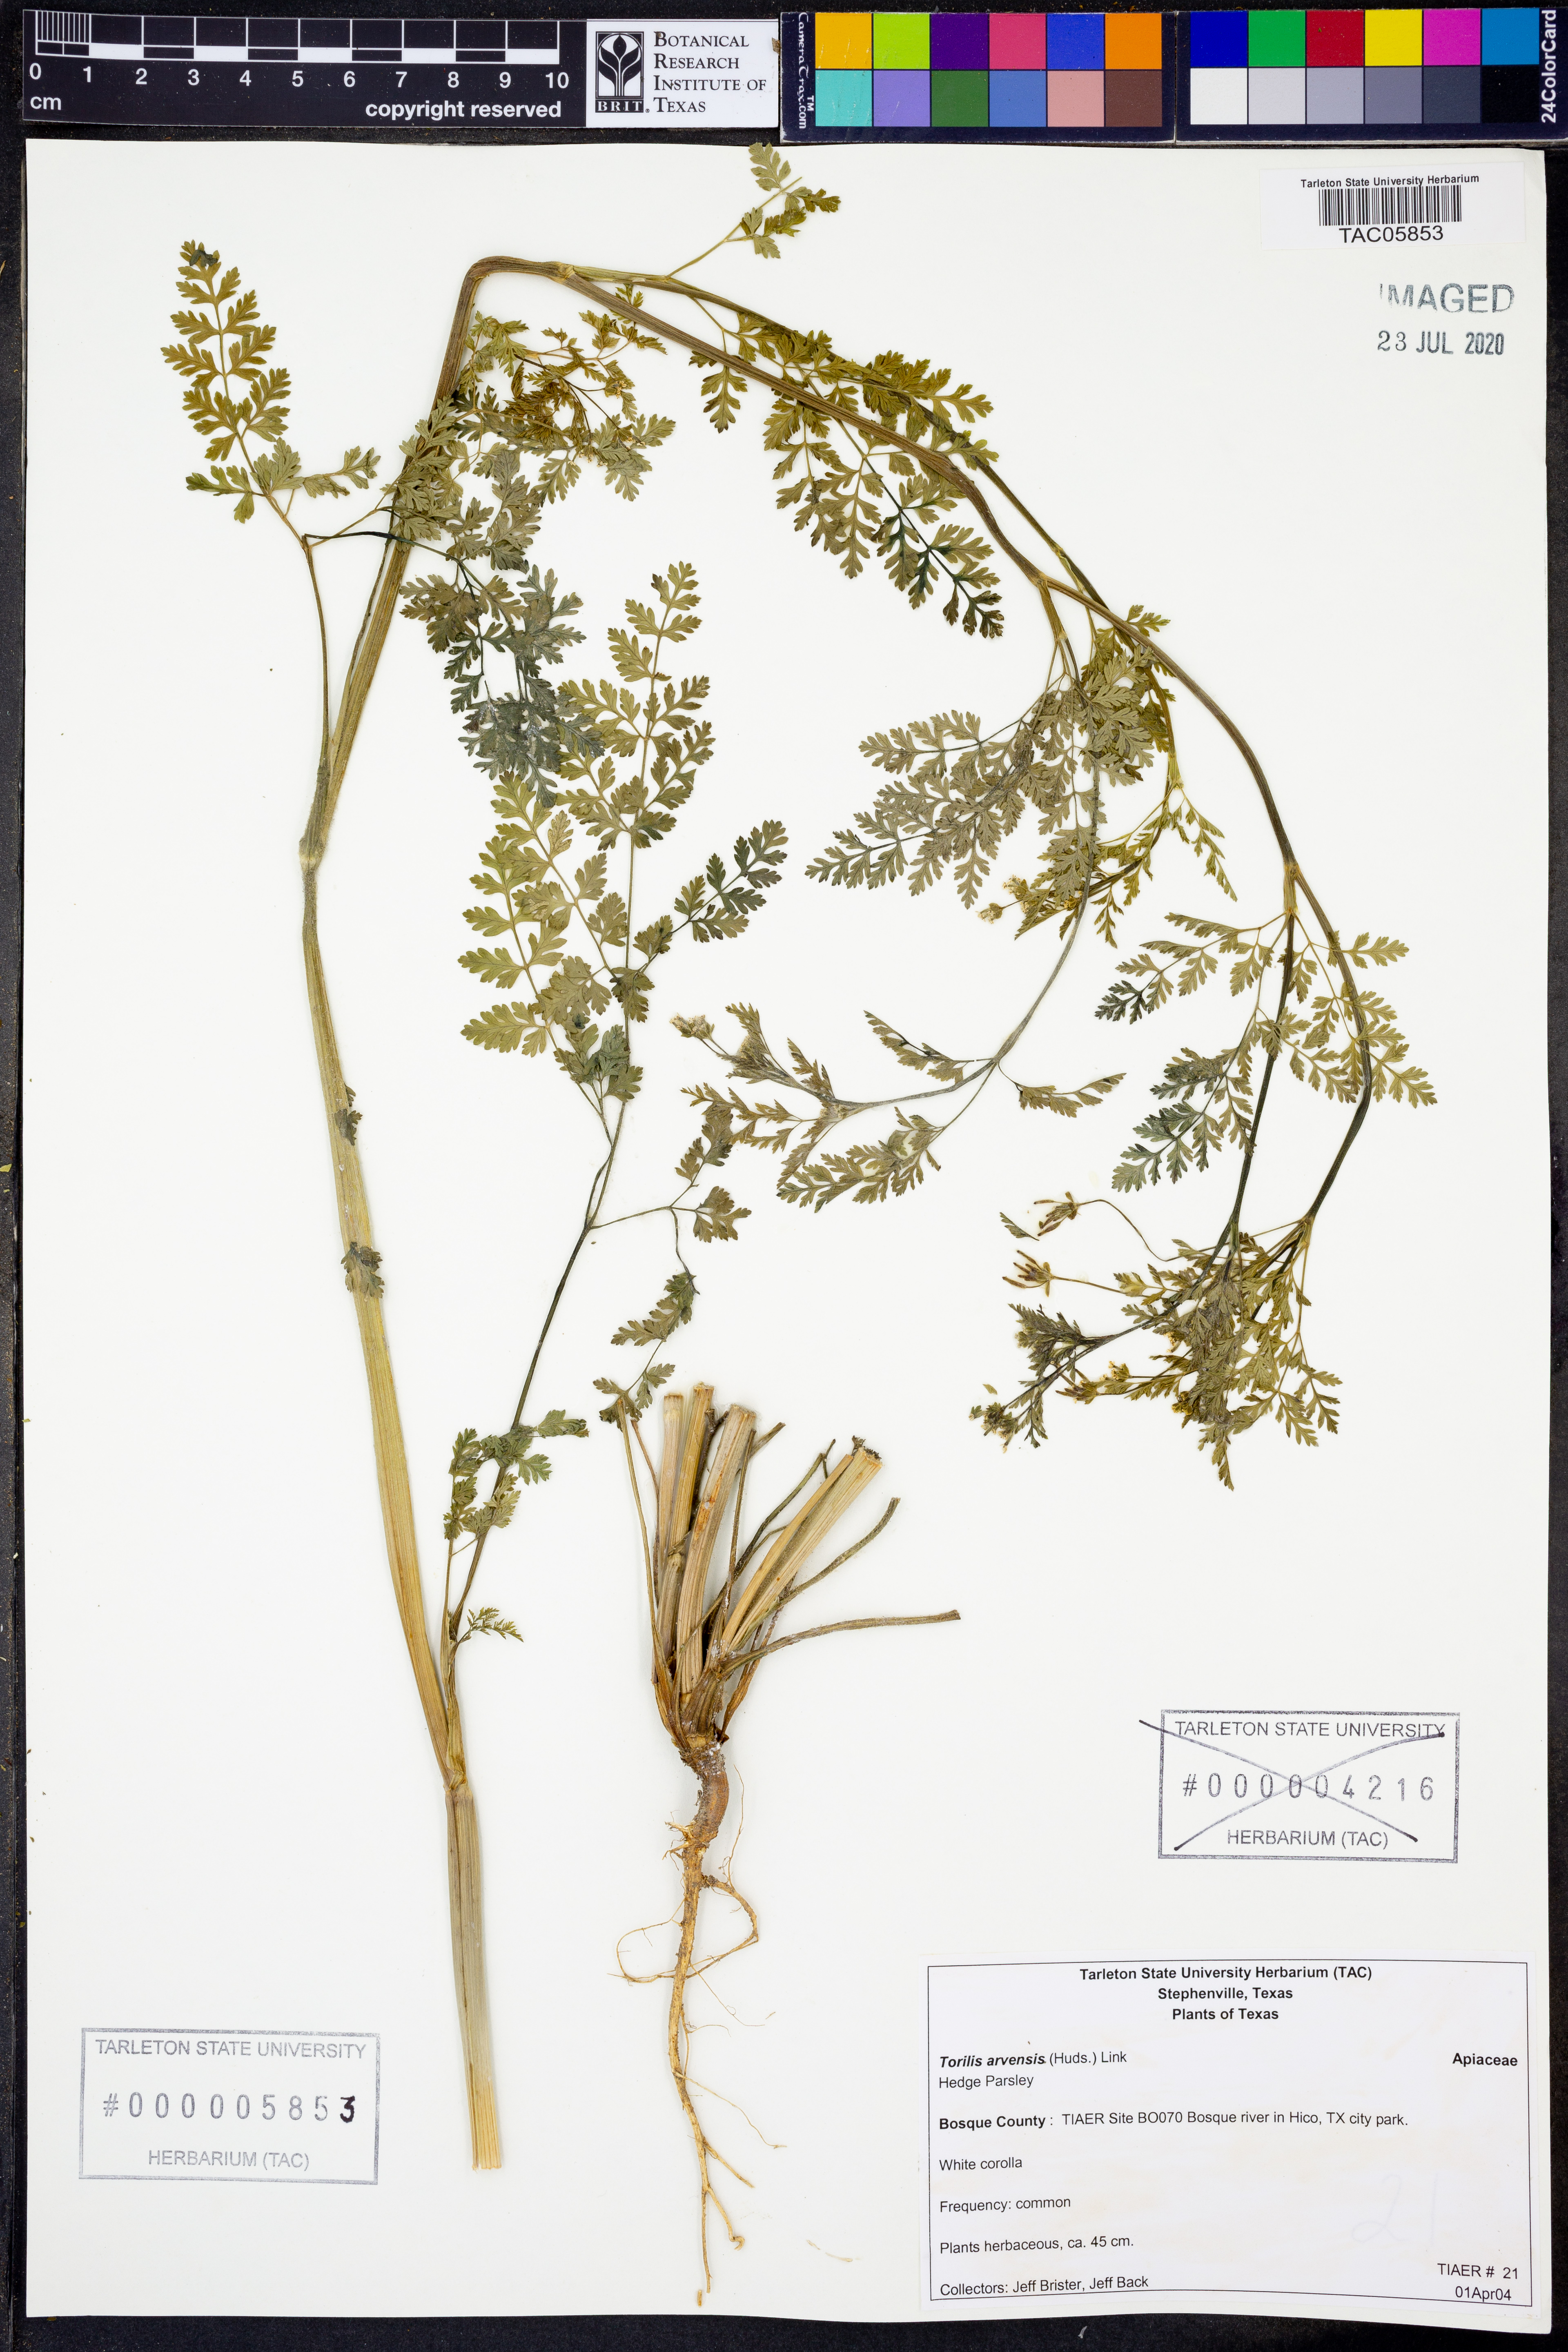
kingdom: Plantae
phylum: Tracheophyta
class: Magnoliopsida
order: Apiales
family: Apiaceae
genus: Torilis
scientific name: Torilis arvensis
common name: Spreading hedge-parsley
